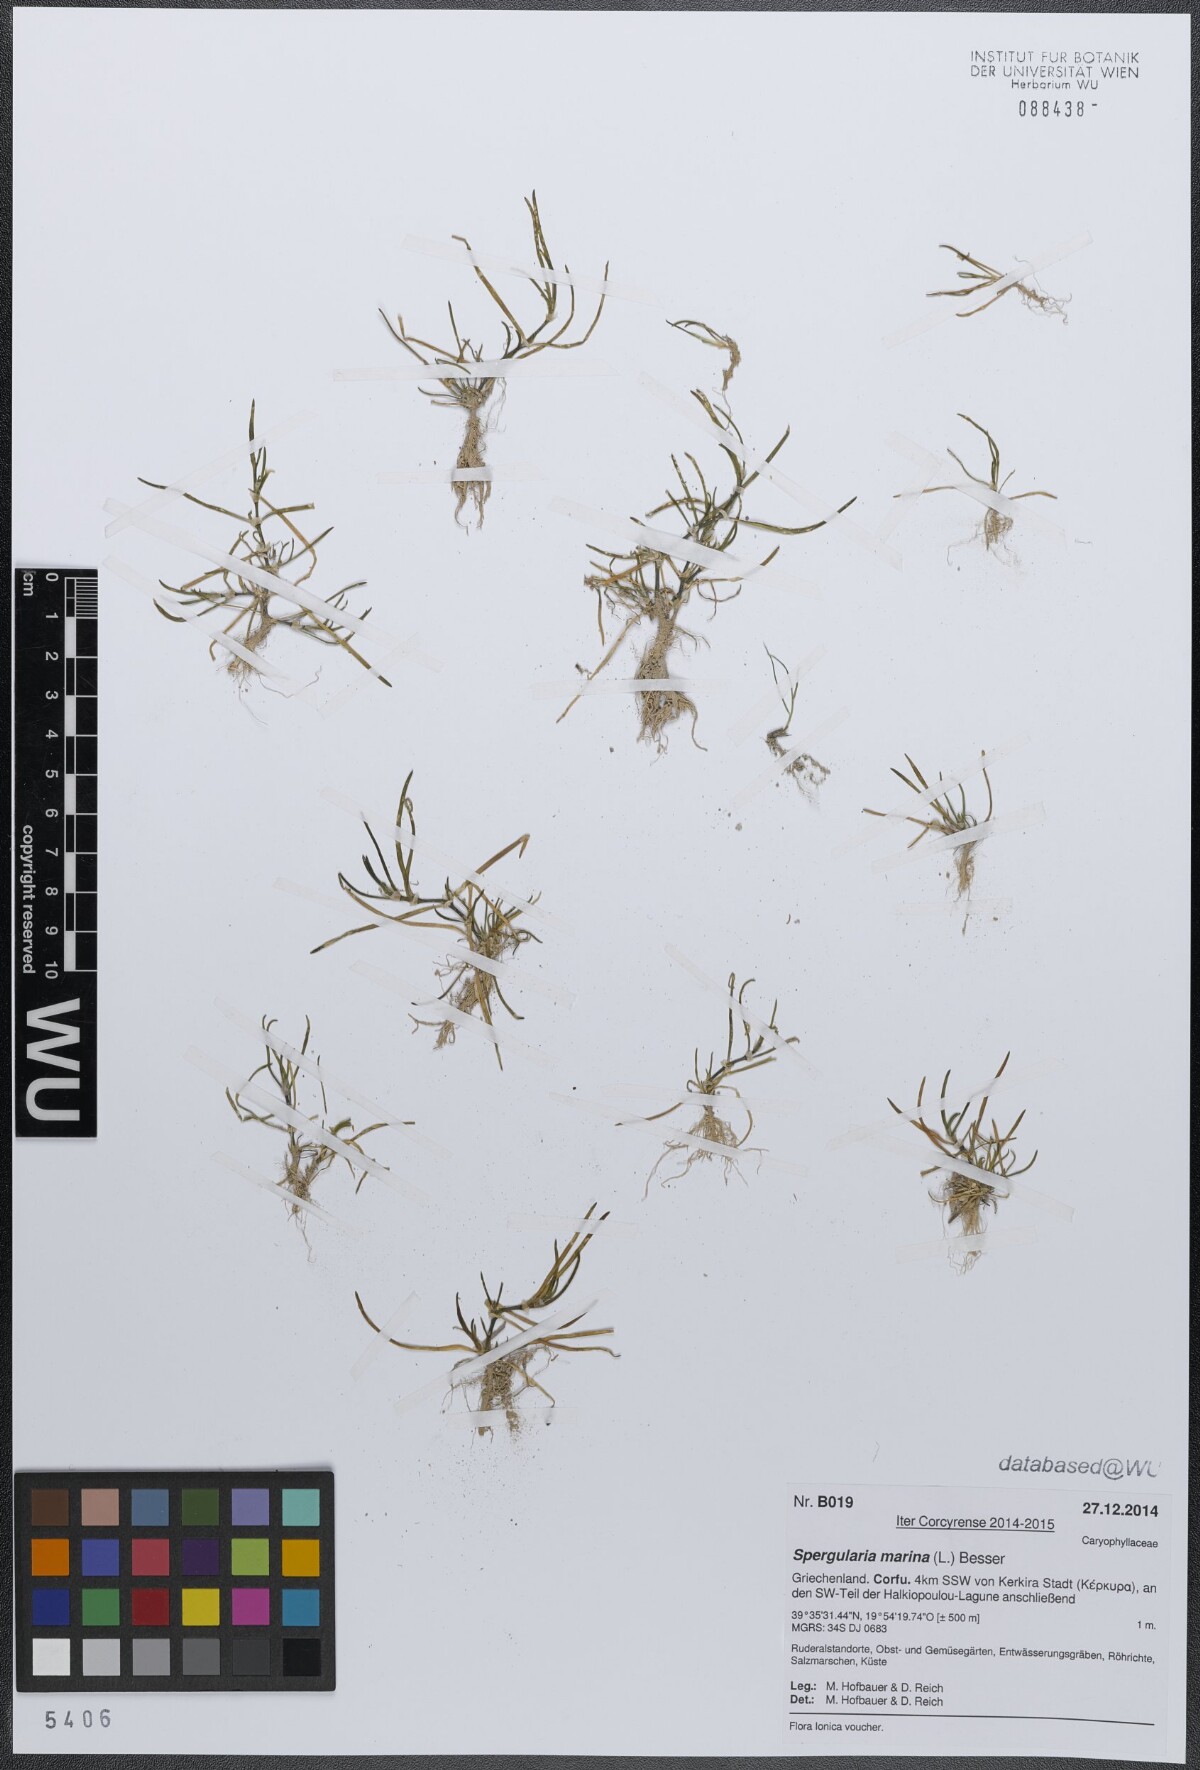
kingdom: Plantae
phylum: Tracheophyta
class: Magnoliopsida
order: Caryophyllales
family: Caryophyllaceae
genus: Spergularia
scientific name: Spergularia marina
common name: Lesser sea-spurrey
